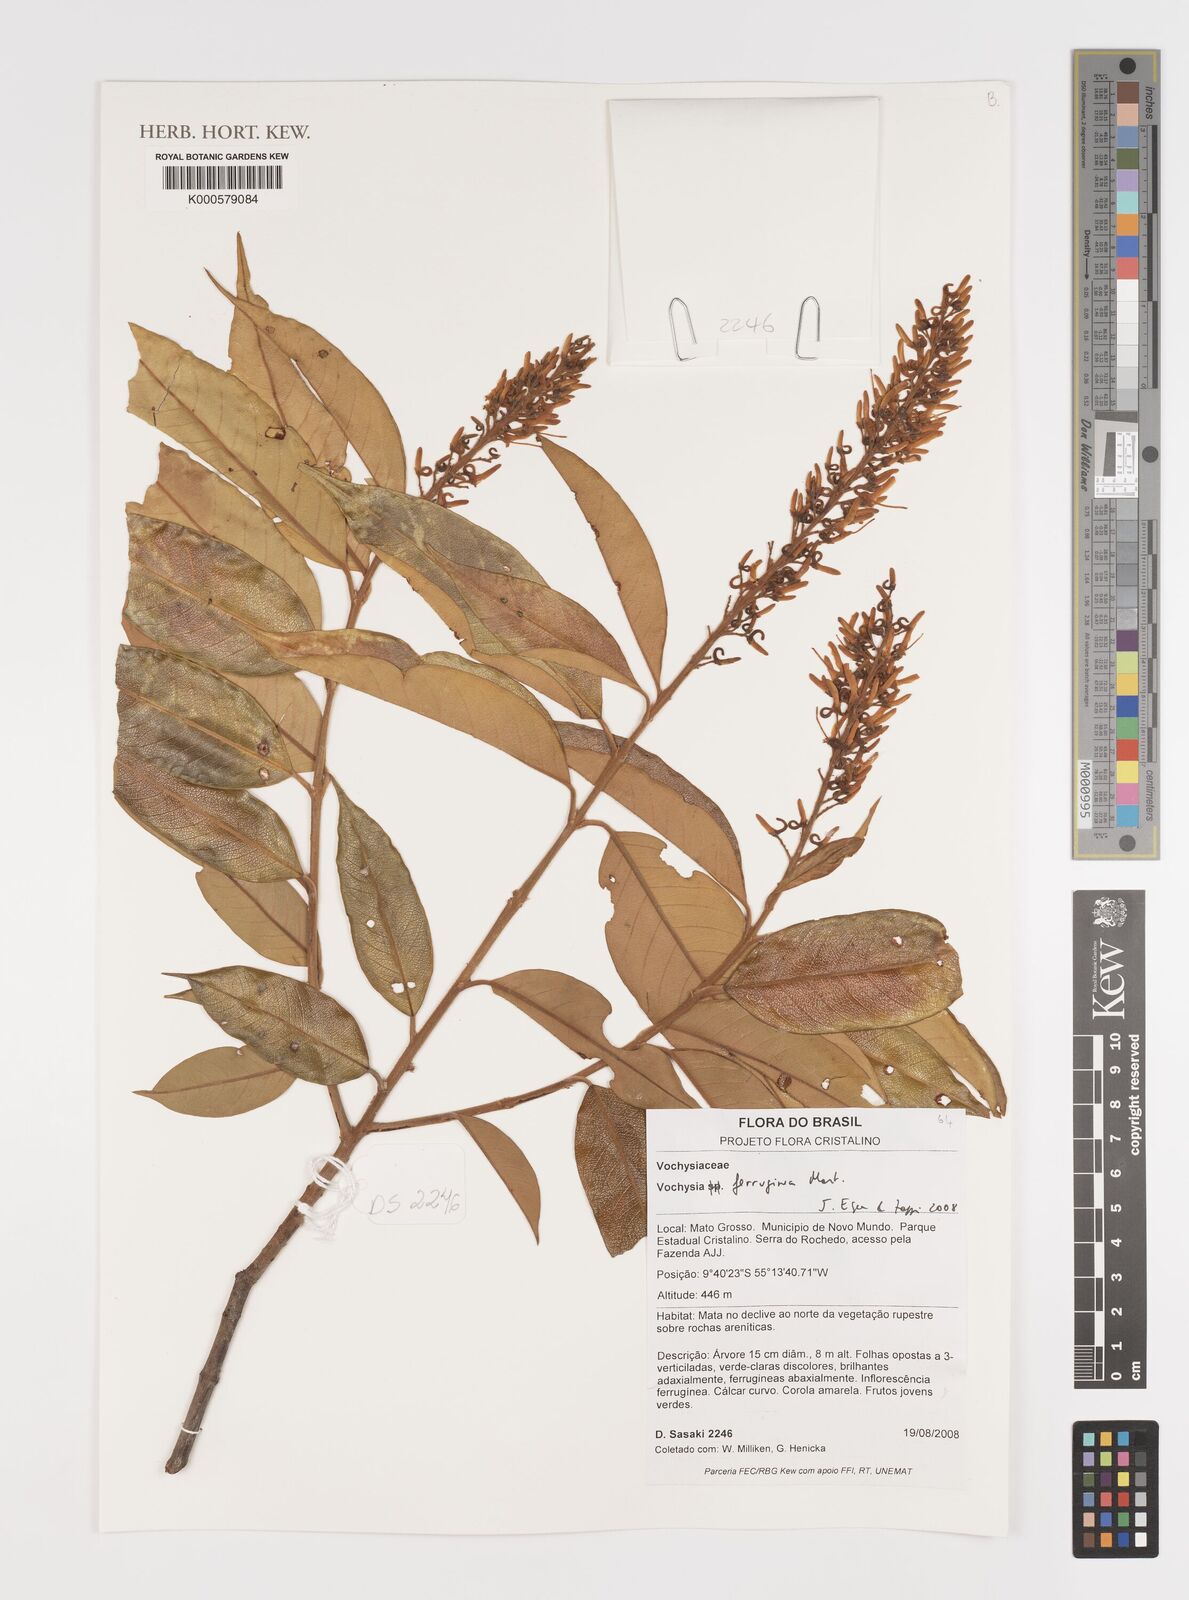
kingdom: Plantae
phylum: Tracheophyta
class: Magnoliopsida
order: Myrtales
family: Vochysiaceae
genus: Vochysia
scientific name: Vochysia ferruginea
